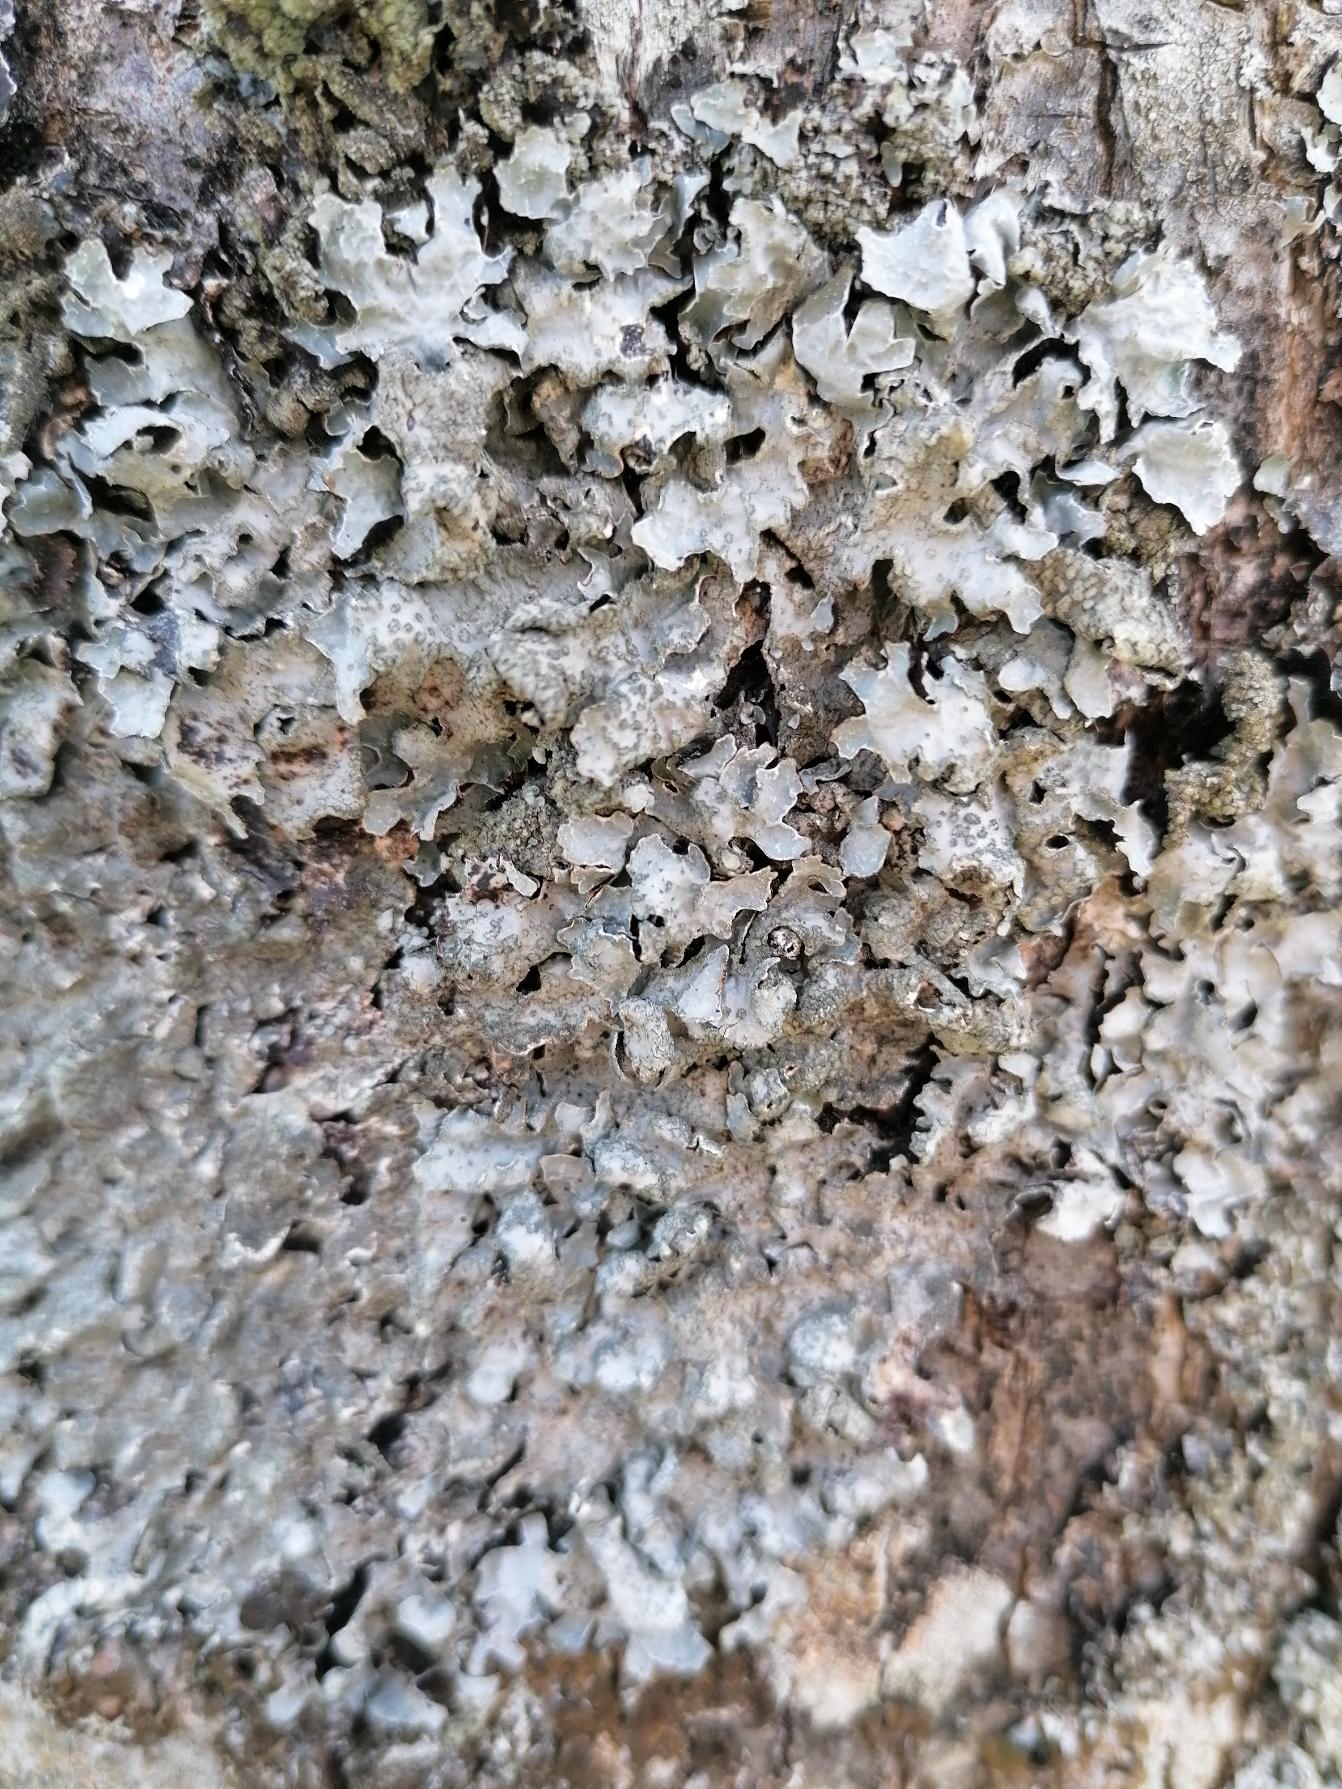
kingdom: Fungi
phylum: Ascomycota
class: Lecanoromycetes
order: Lecanorales
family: Parmeliaceae
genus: Parmelia
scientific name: Parmelia sulcata
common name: Rynket skållav
